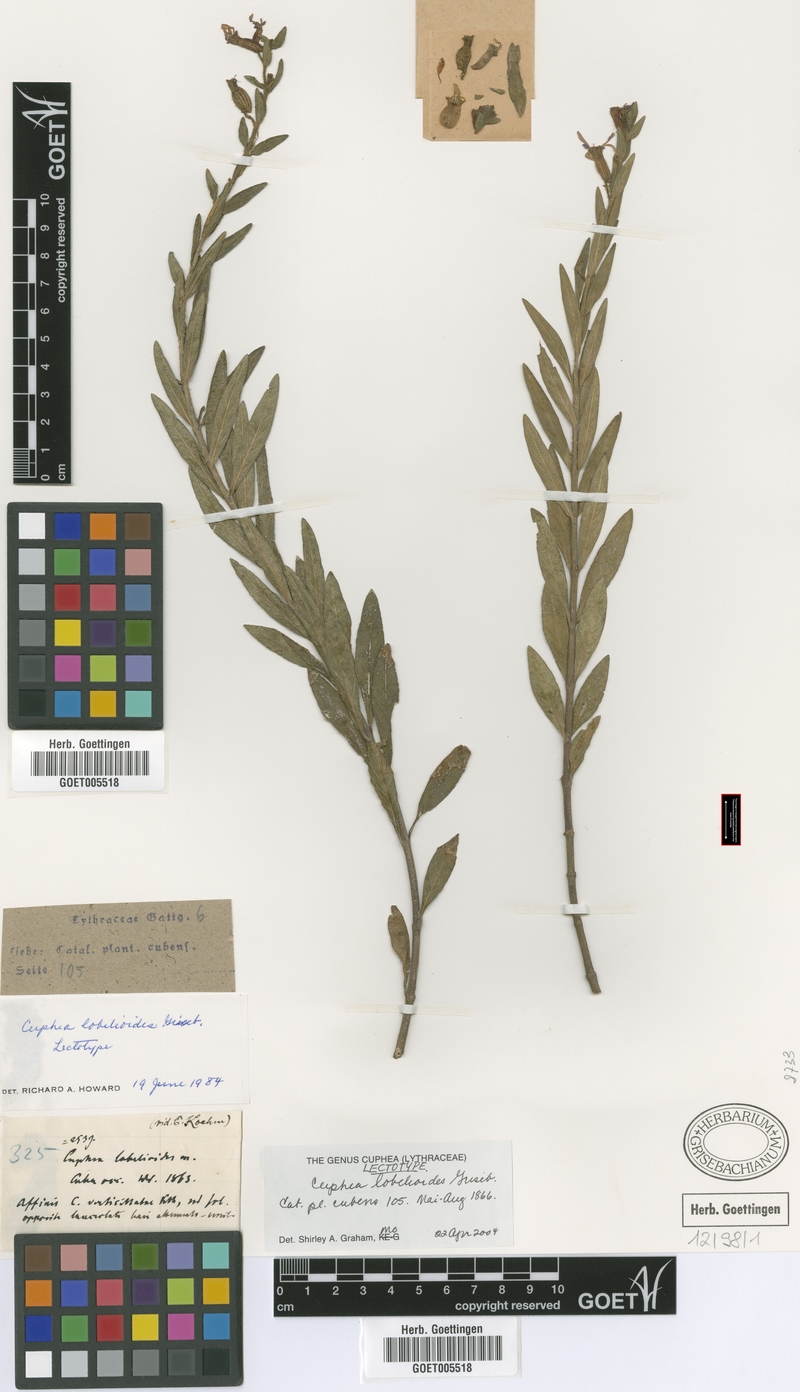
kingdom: Plantae
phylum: Tracheophyta
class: Magnoliopsida
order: Myrtales
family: Lythraceae
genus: Cuphea
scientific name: Cuphea lobelioides
